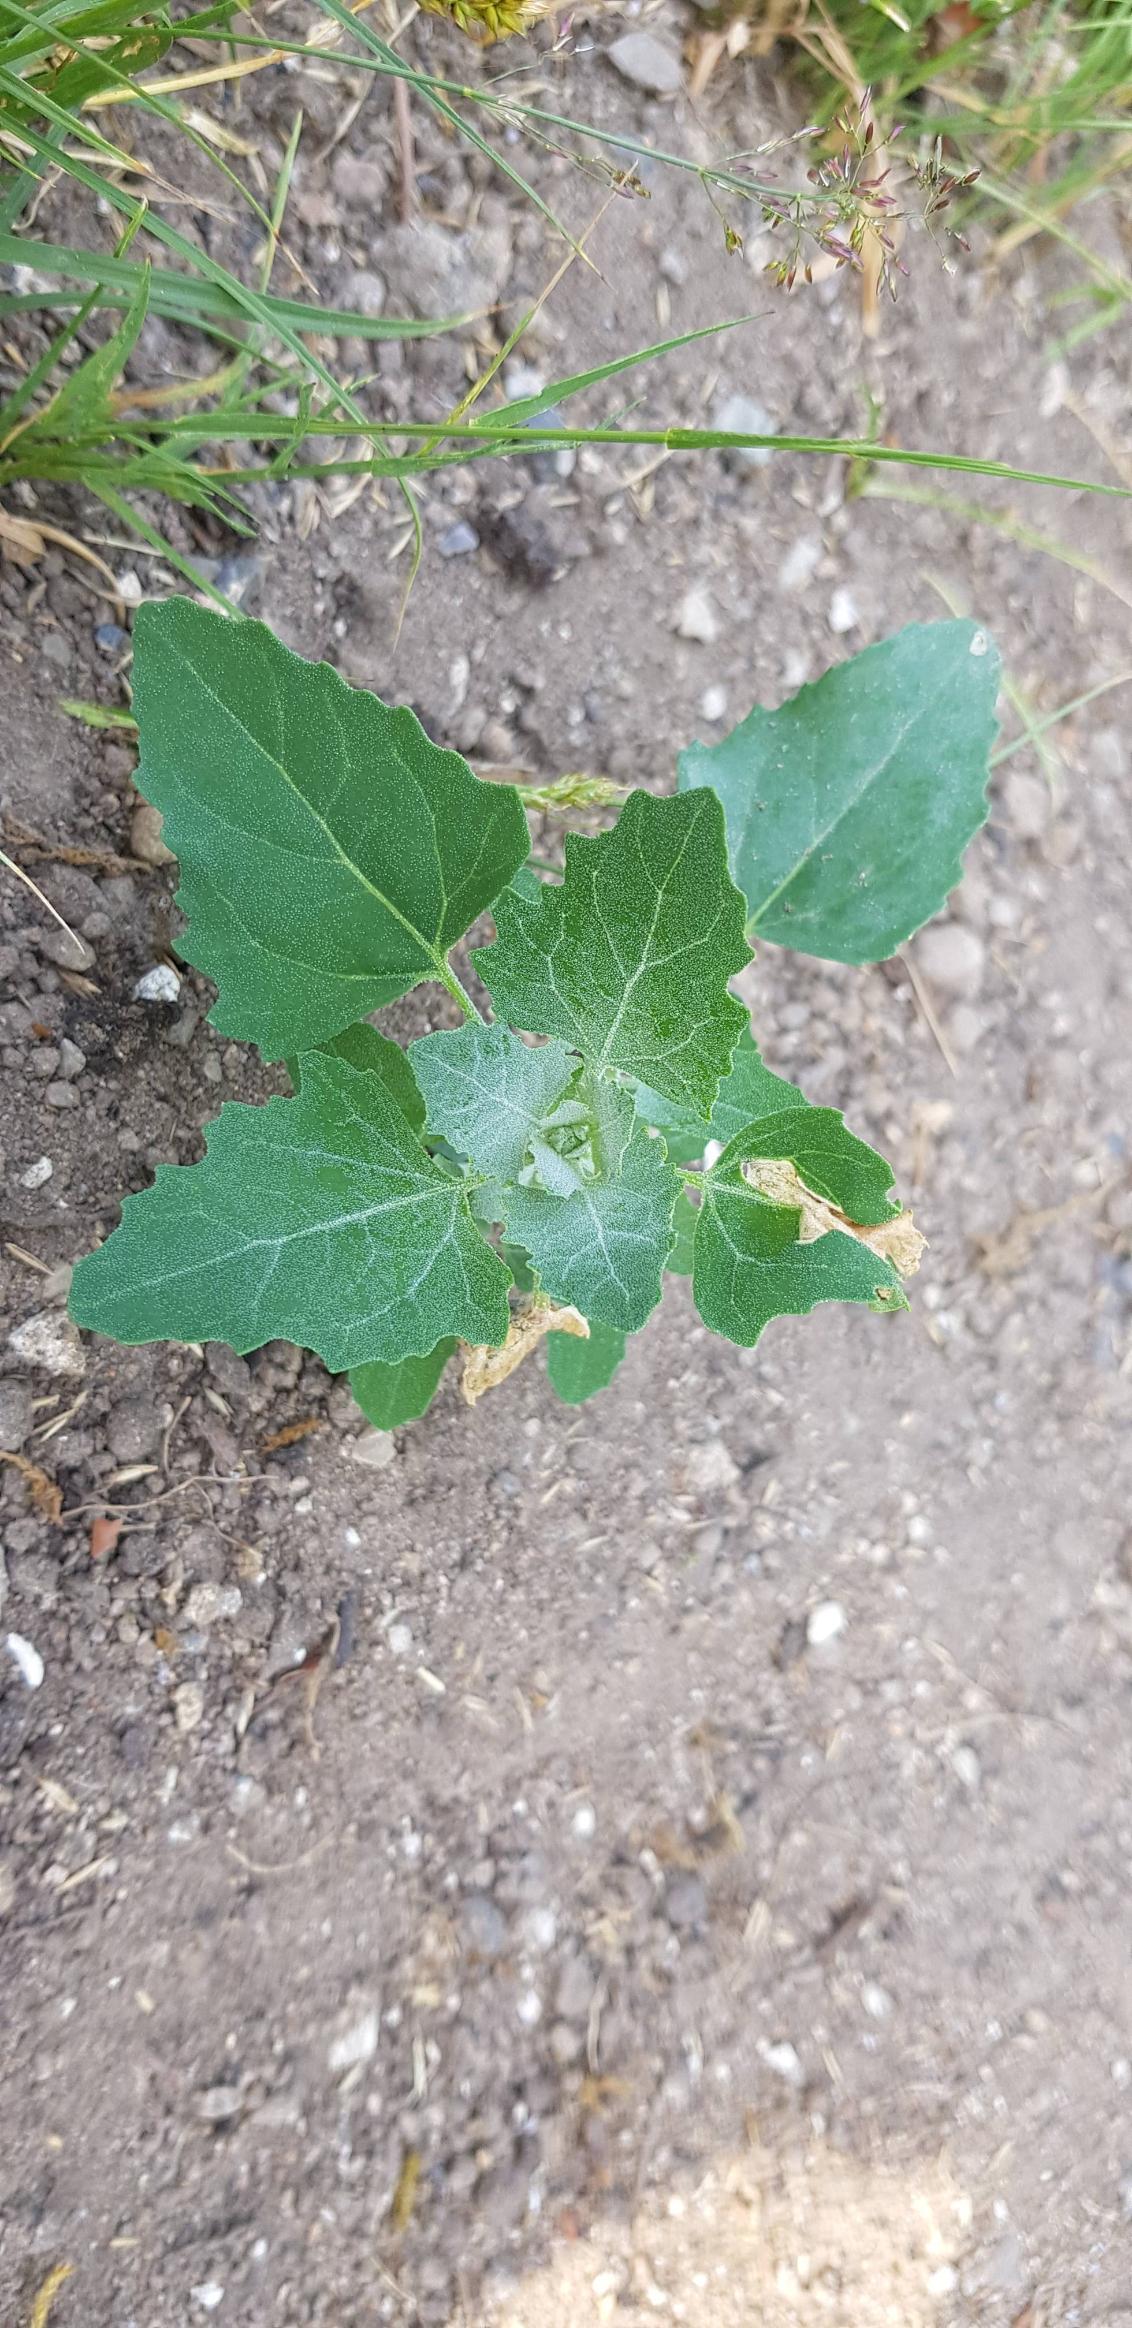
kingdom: Plantae
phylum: Tracheophyta
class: Magnoliopsida
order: Caryophyllales
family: Amaranthaceae
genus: Chenopodium
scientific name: Chenopodium album
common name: Hvidmelet gåsefod
